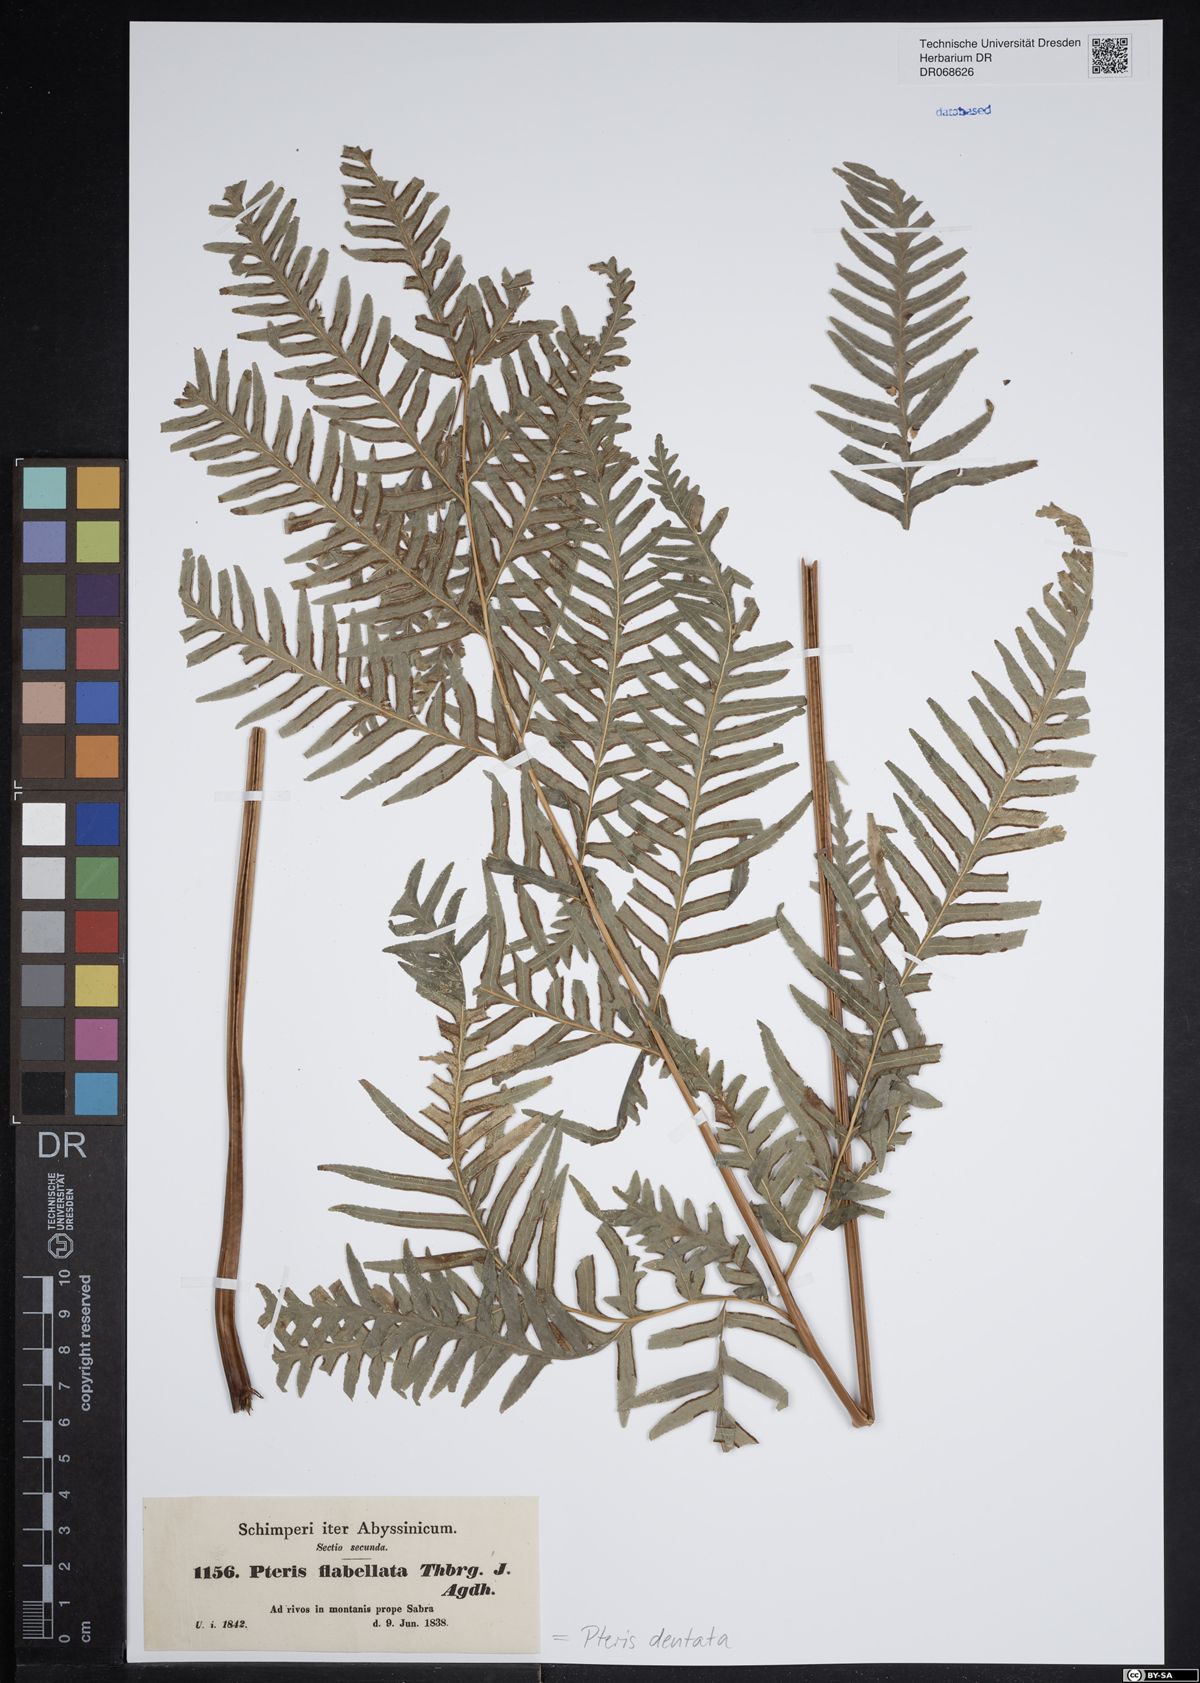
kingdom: Plantae
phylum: Tracheophyta
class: Polypodiopsida
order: Polypodiales
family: Pteridaceae
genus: Pteris
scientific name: Pteris dentata
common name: Toothed brake
